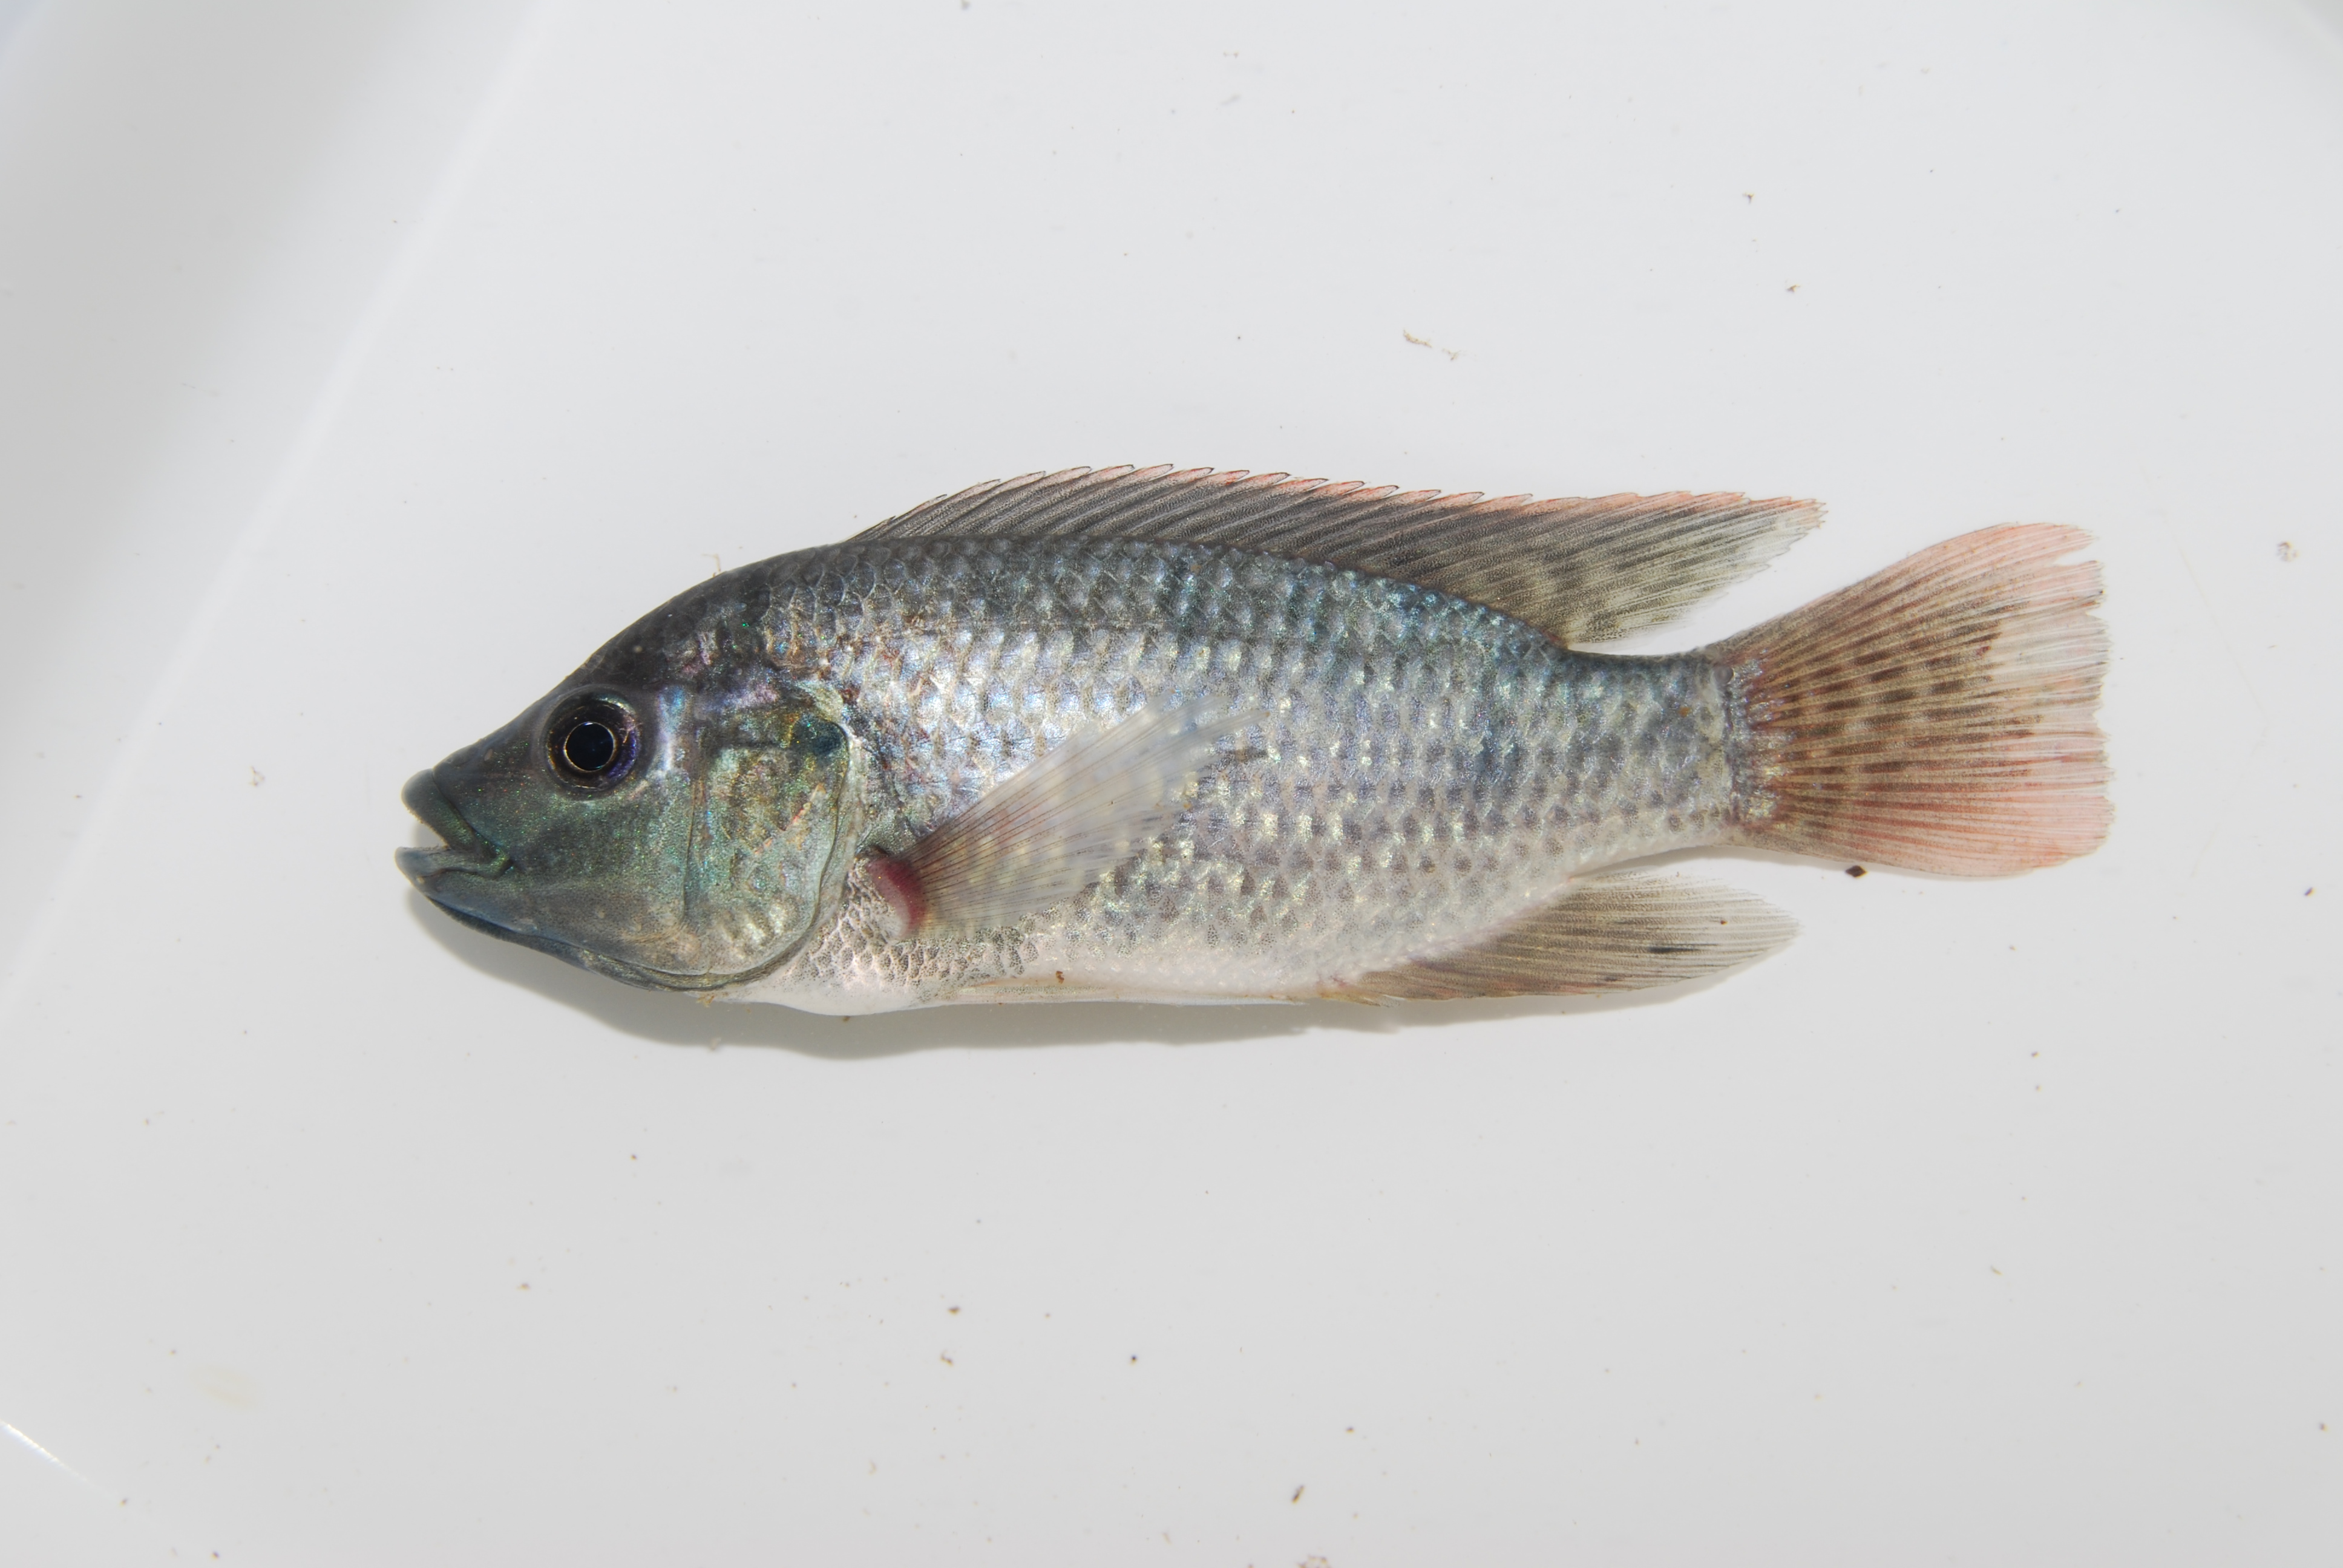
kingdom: Animalia
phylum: Chordata
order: Perciformes
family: Cichlidae
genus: Oreochromis
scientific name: Oreochromis
